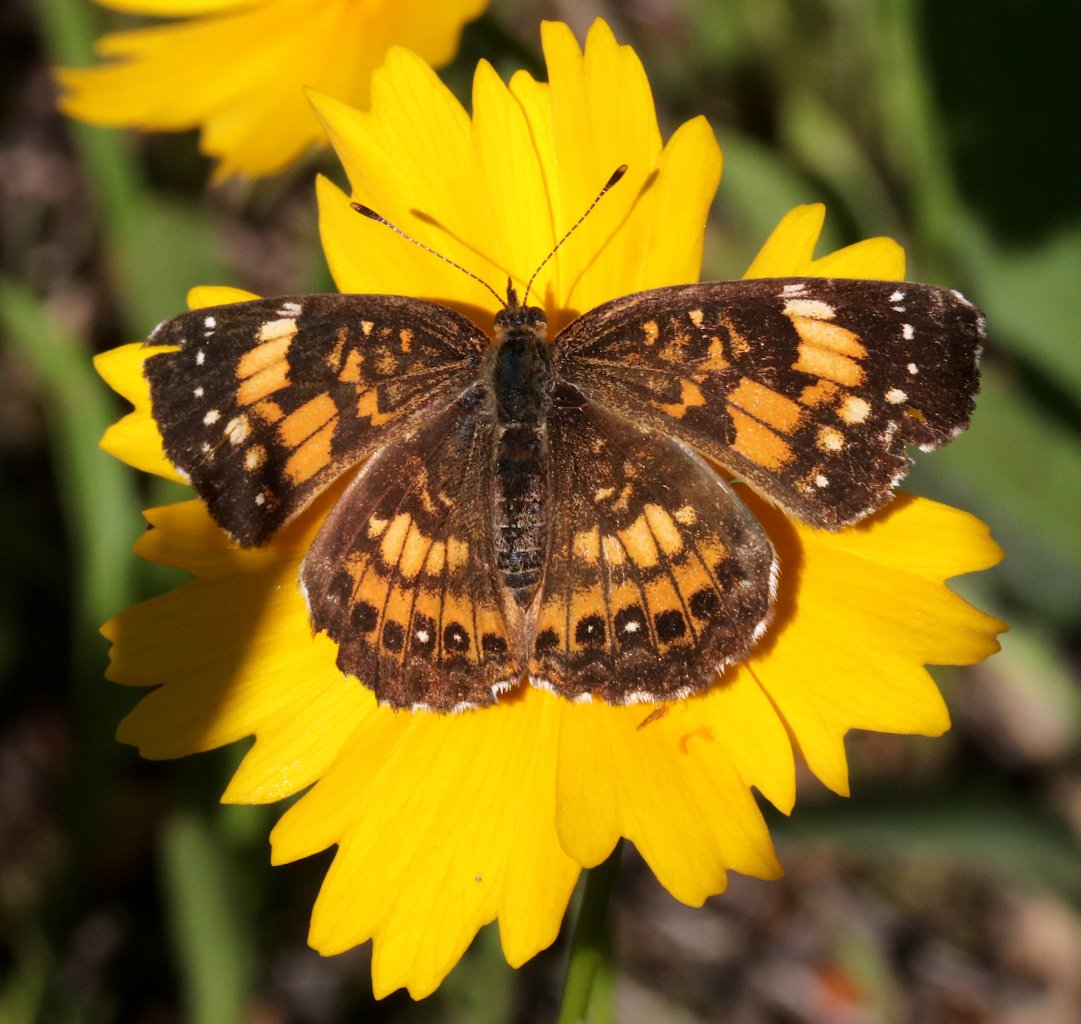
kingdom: Animalia
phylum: Arthropoda
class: Insecta
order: Lepidoptera
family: Nymphalidae
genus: Chlosyne
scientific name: Chlosyne nycteis
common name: Silvery Checkerspot
